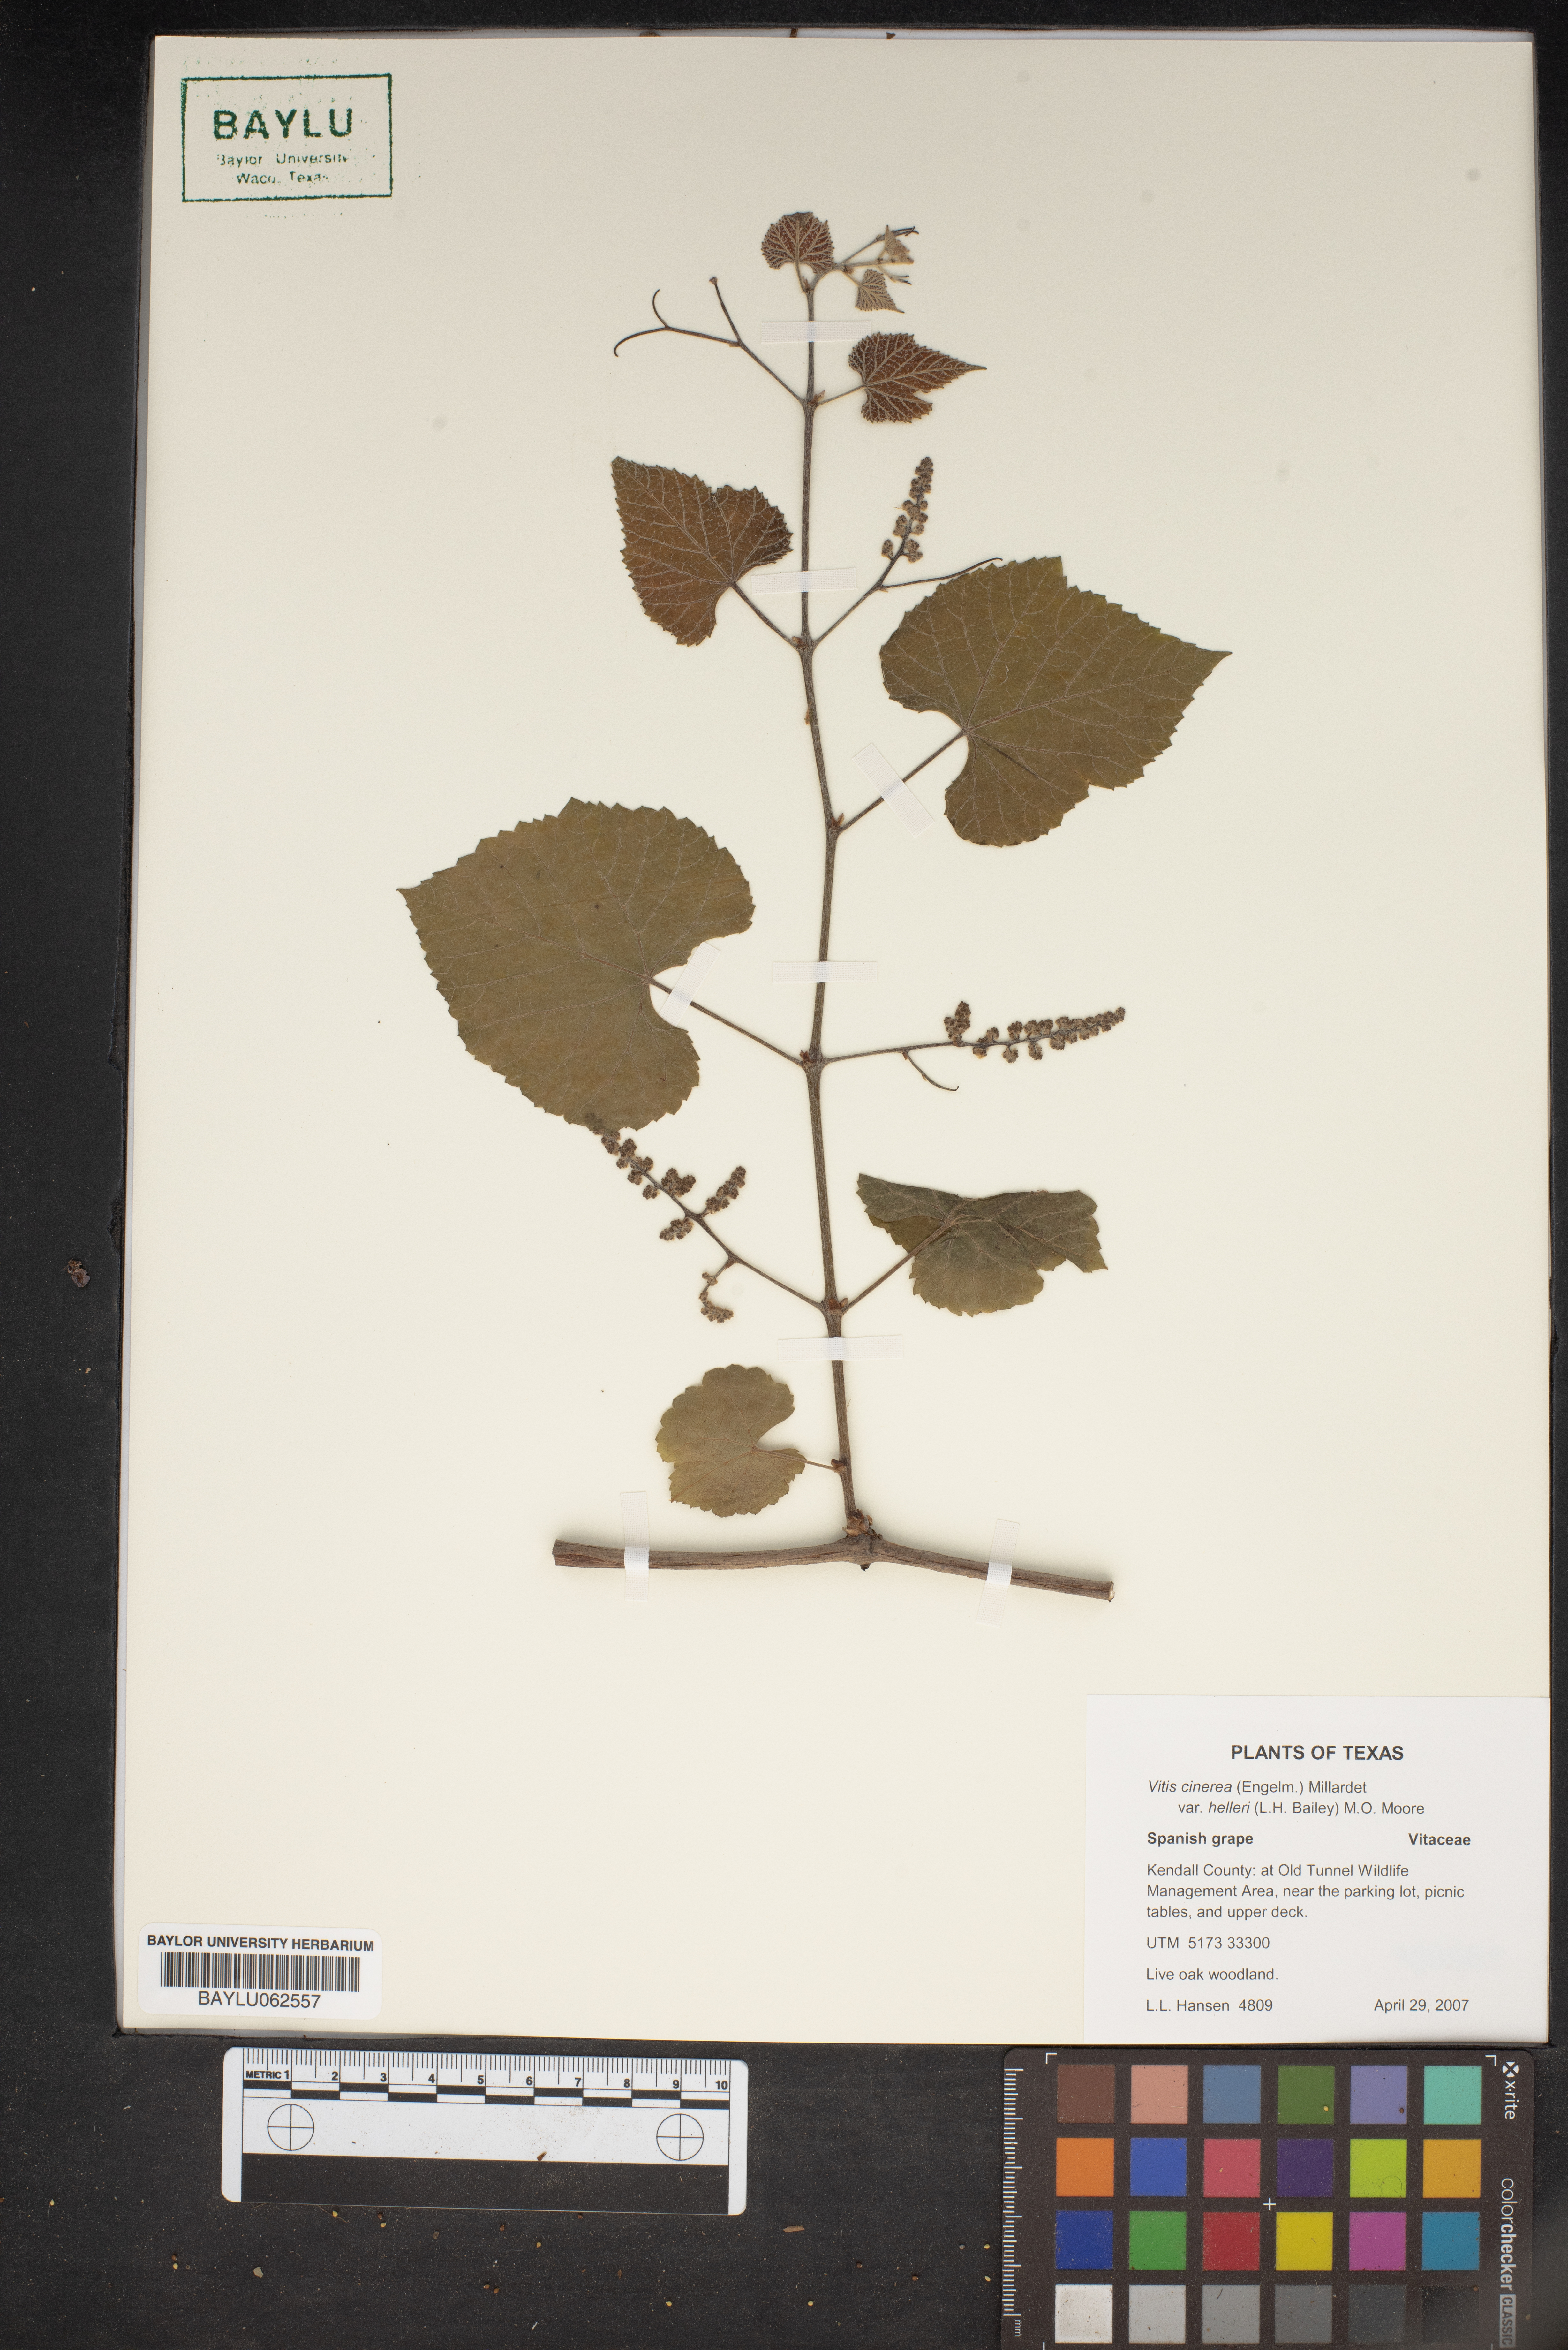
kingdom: Plantae
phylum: Tracheophyta
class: Magnoliopsida
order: Vitales
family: Vitaceae
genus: Vitis
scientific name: Vitis cinerea
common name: Ashy grape
